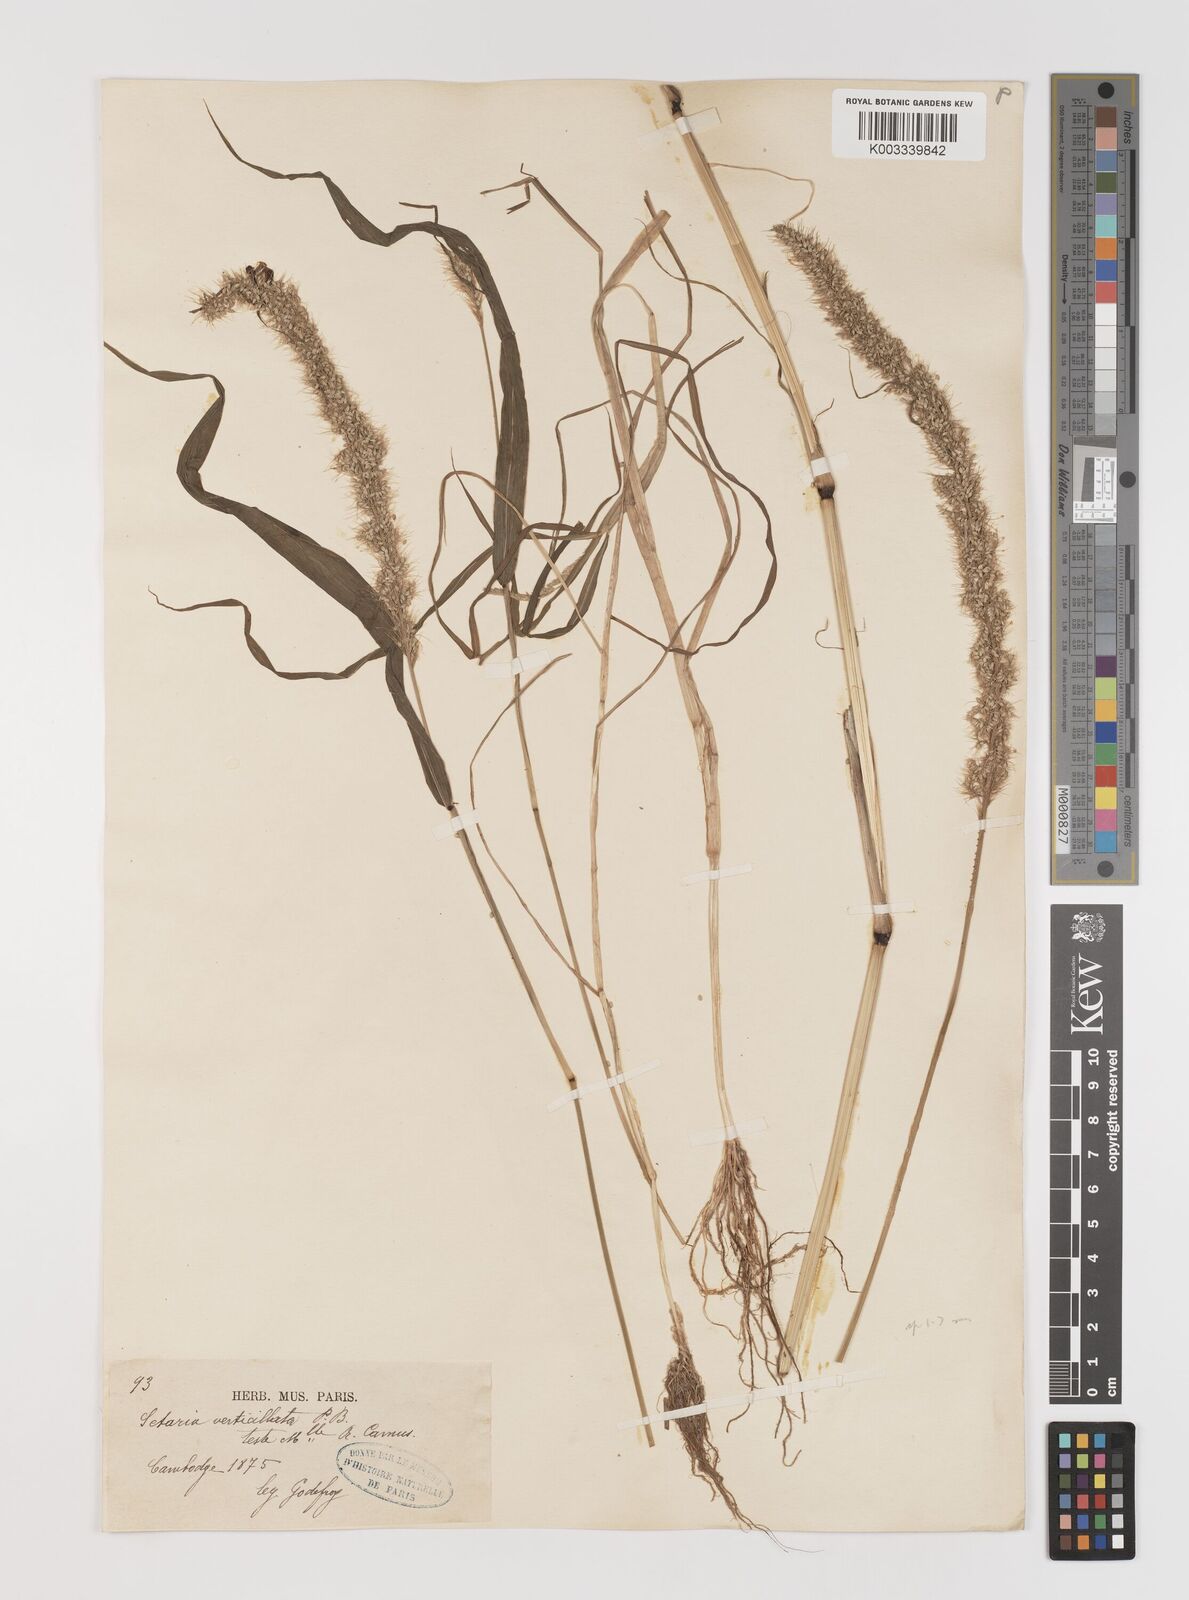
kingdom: Plantae
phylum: Tracheophyta
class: Liliopsida
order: Poales
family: Poaceae
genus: Setaria
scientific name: Setaria verticillata
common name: Hooked bristlegrass
